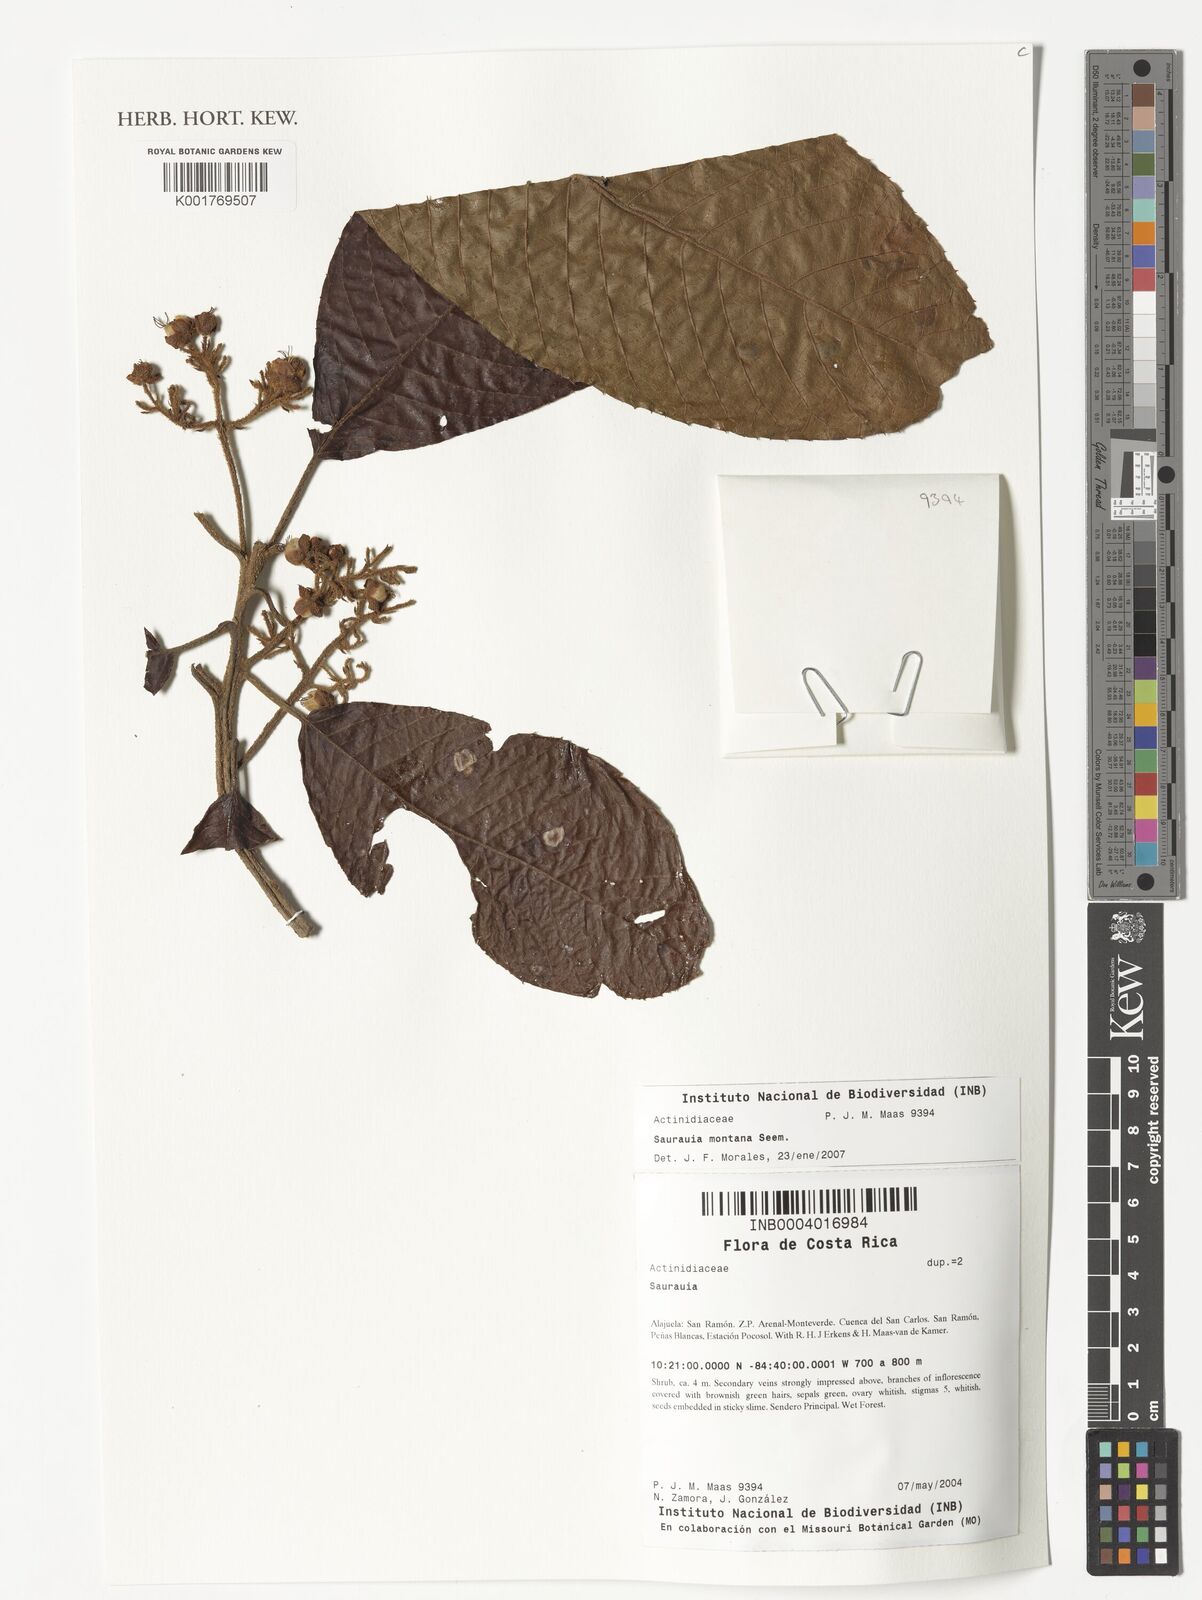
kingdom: Plantae
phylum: Tracheophyta
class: Magnoliopsida
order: Ericales
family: Actinidiaceae
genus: Saurauia
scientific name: Saurauia montana
